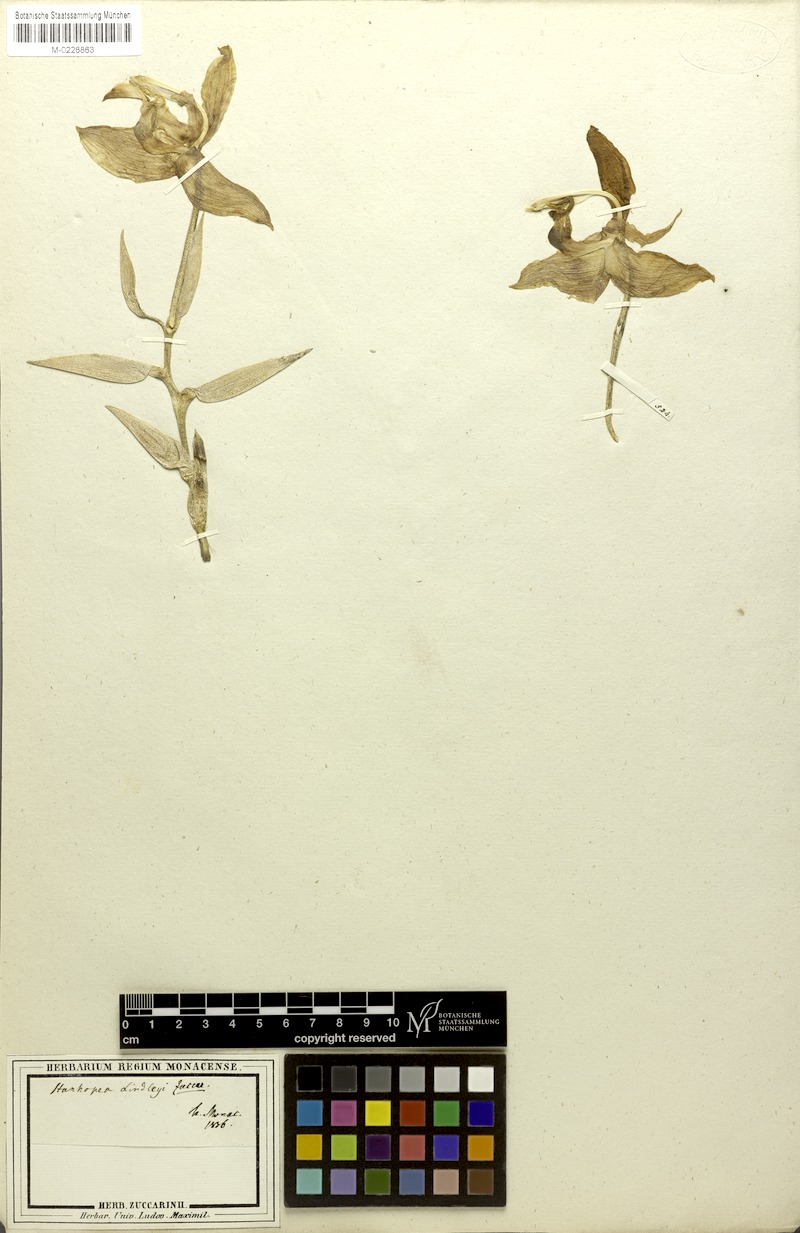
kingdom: Plantae
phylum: Tracheophyta
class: Liliopsida
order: Asparagales
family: Orchidaceae
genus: Stanhopea
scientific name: Stanhopea oculata
